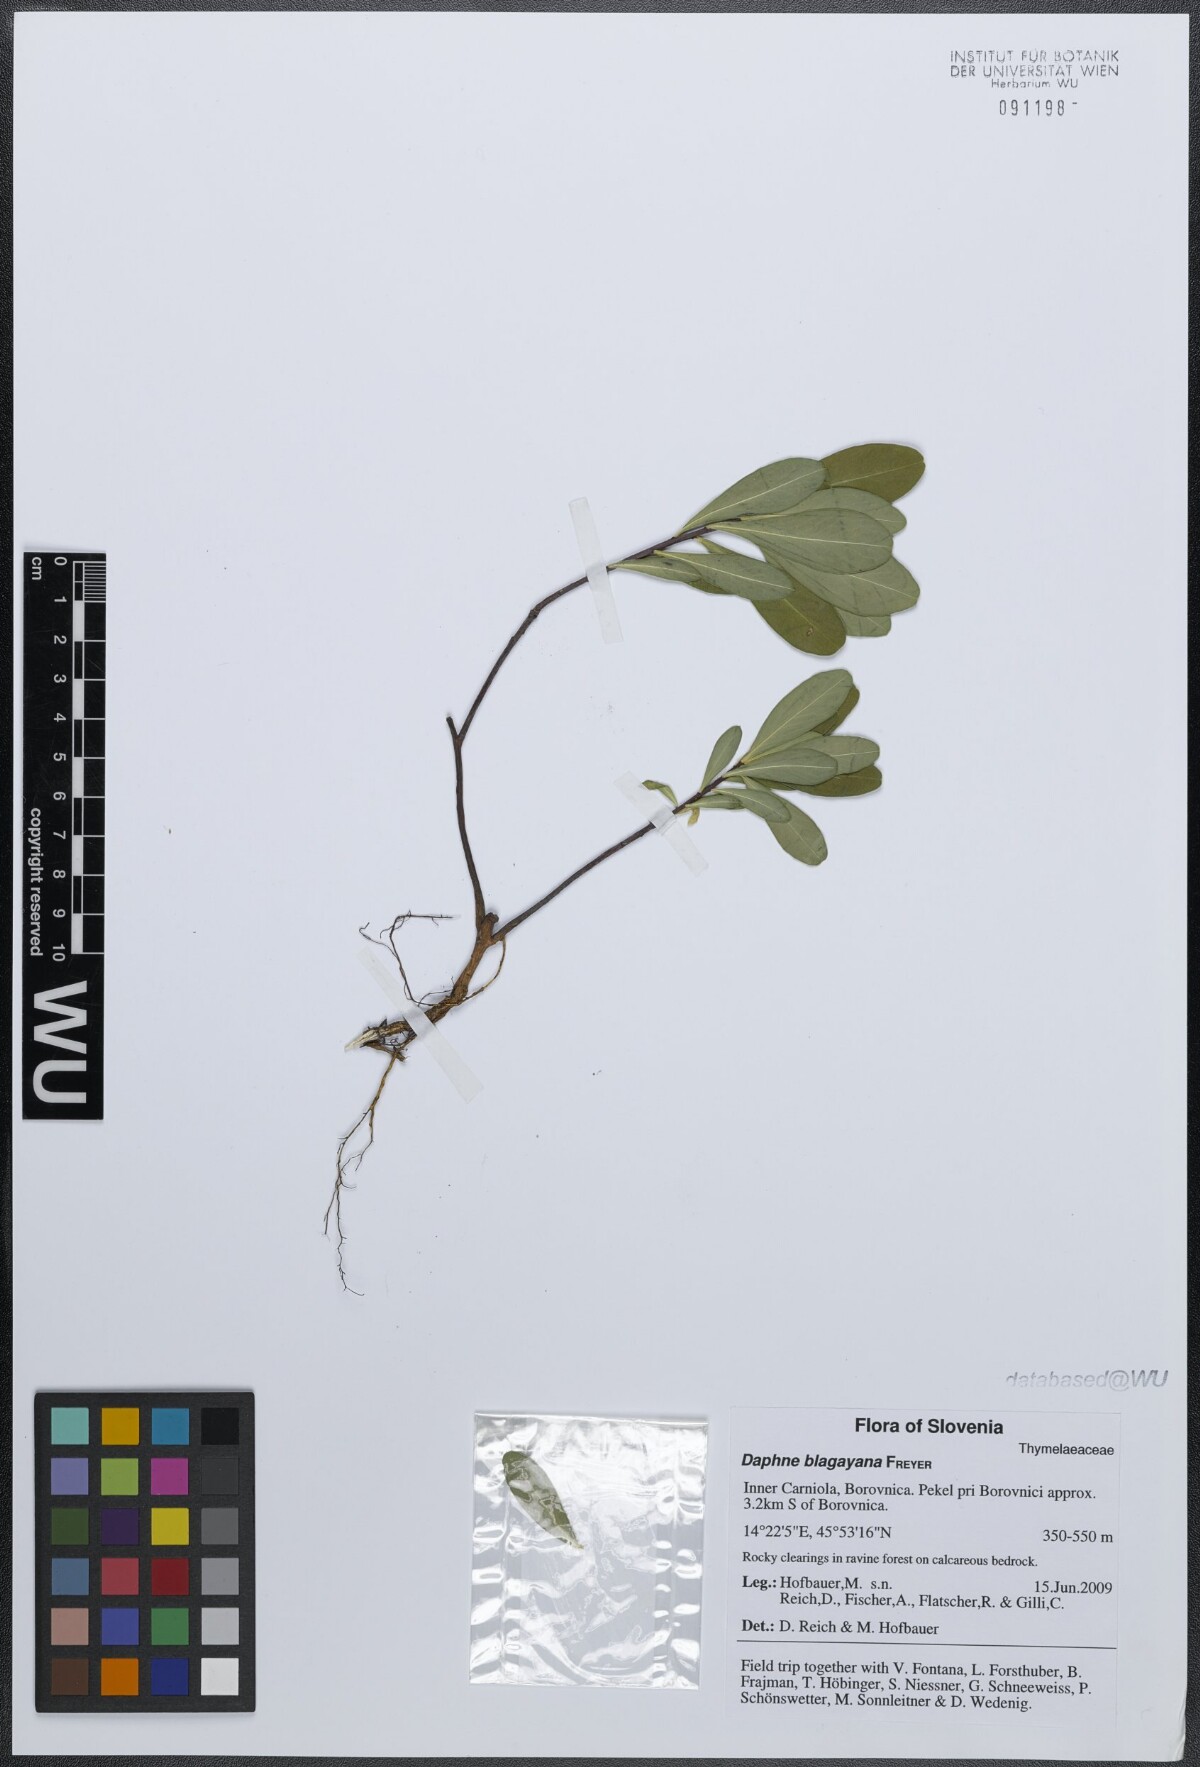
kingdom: Plantae
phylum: Tracheophyta
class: Magnoliopsida
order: Malvales
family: Thymelaeaceae
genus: Daphne
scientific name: Daphne blagayana
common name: Balkan daphne
